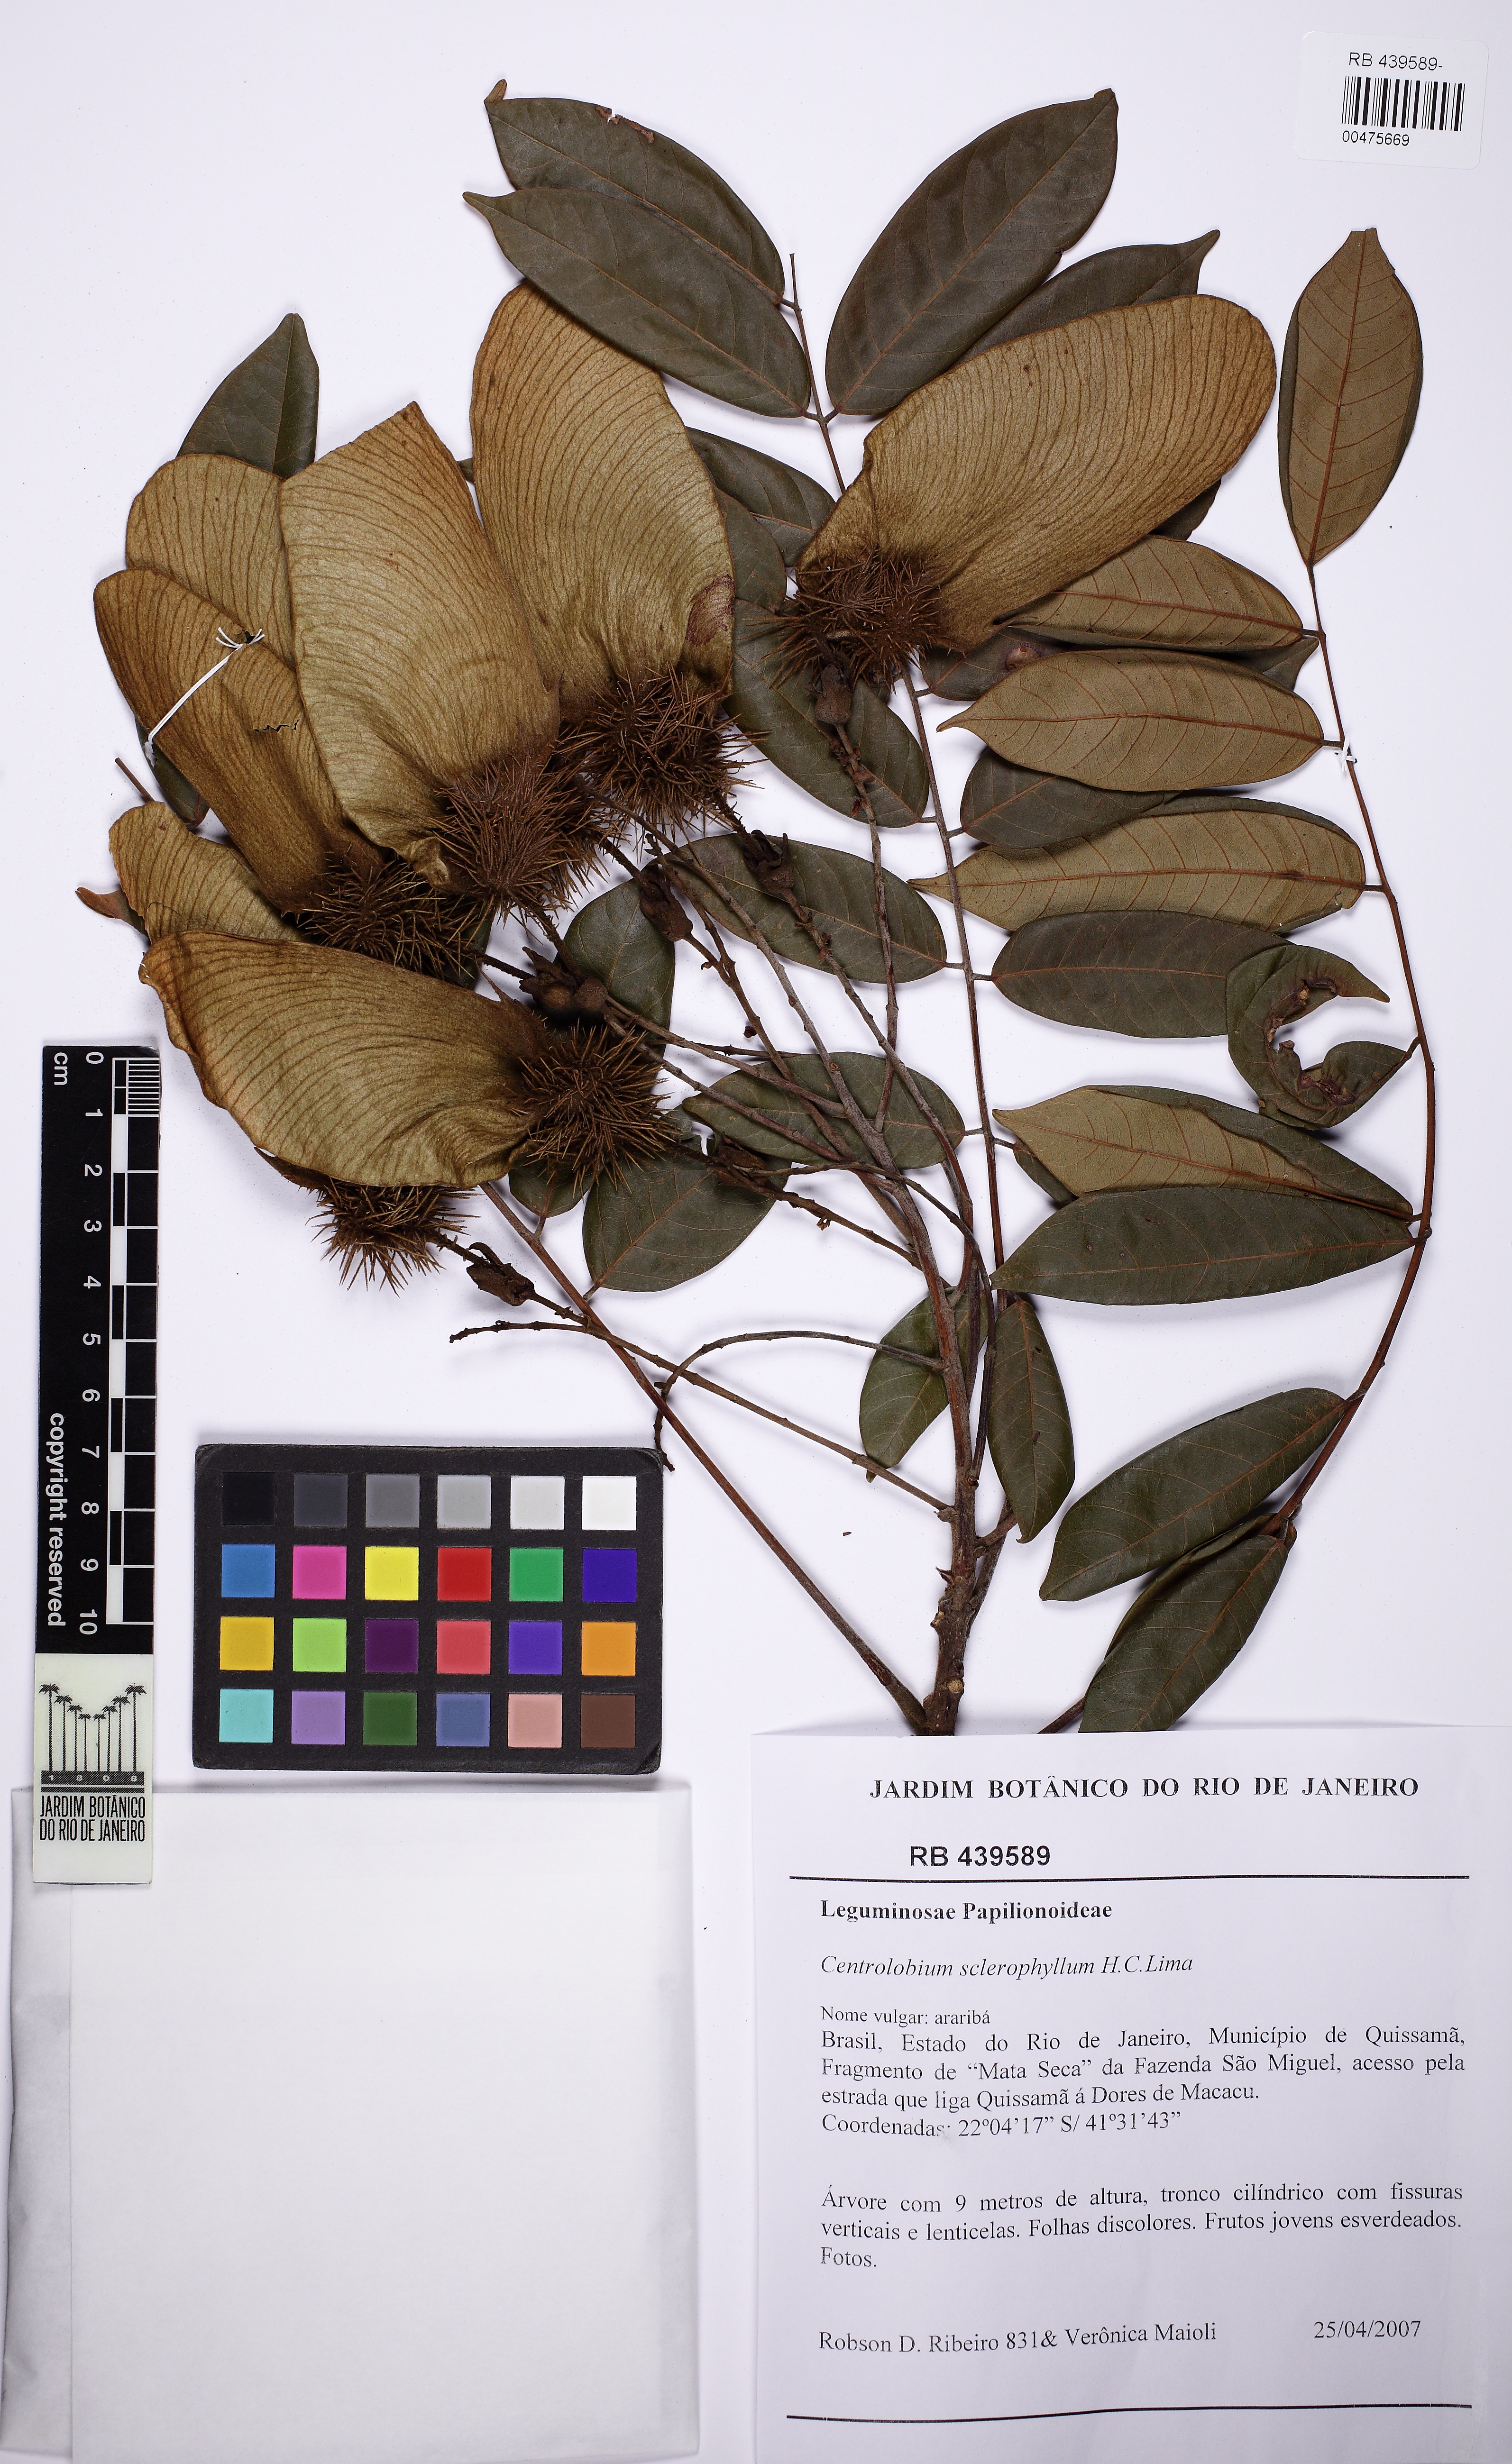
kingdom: Plantae
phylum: Tracheophyta
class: Magnoliopsida
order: Fabales
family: Fabaceae
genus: Centrolobium
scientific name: Centrolobium sclerophyllum
